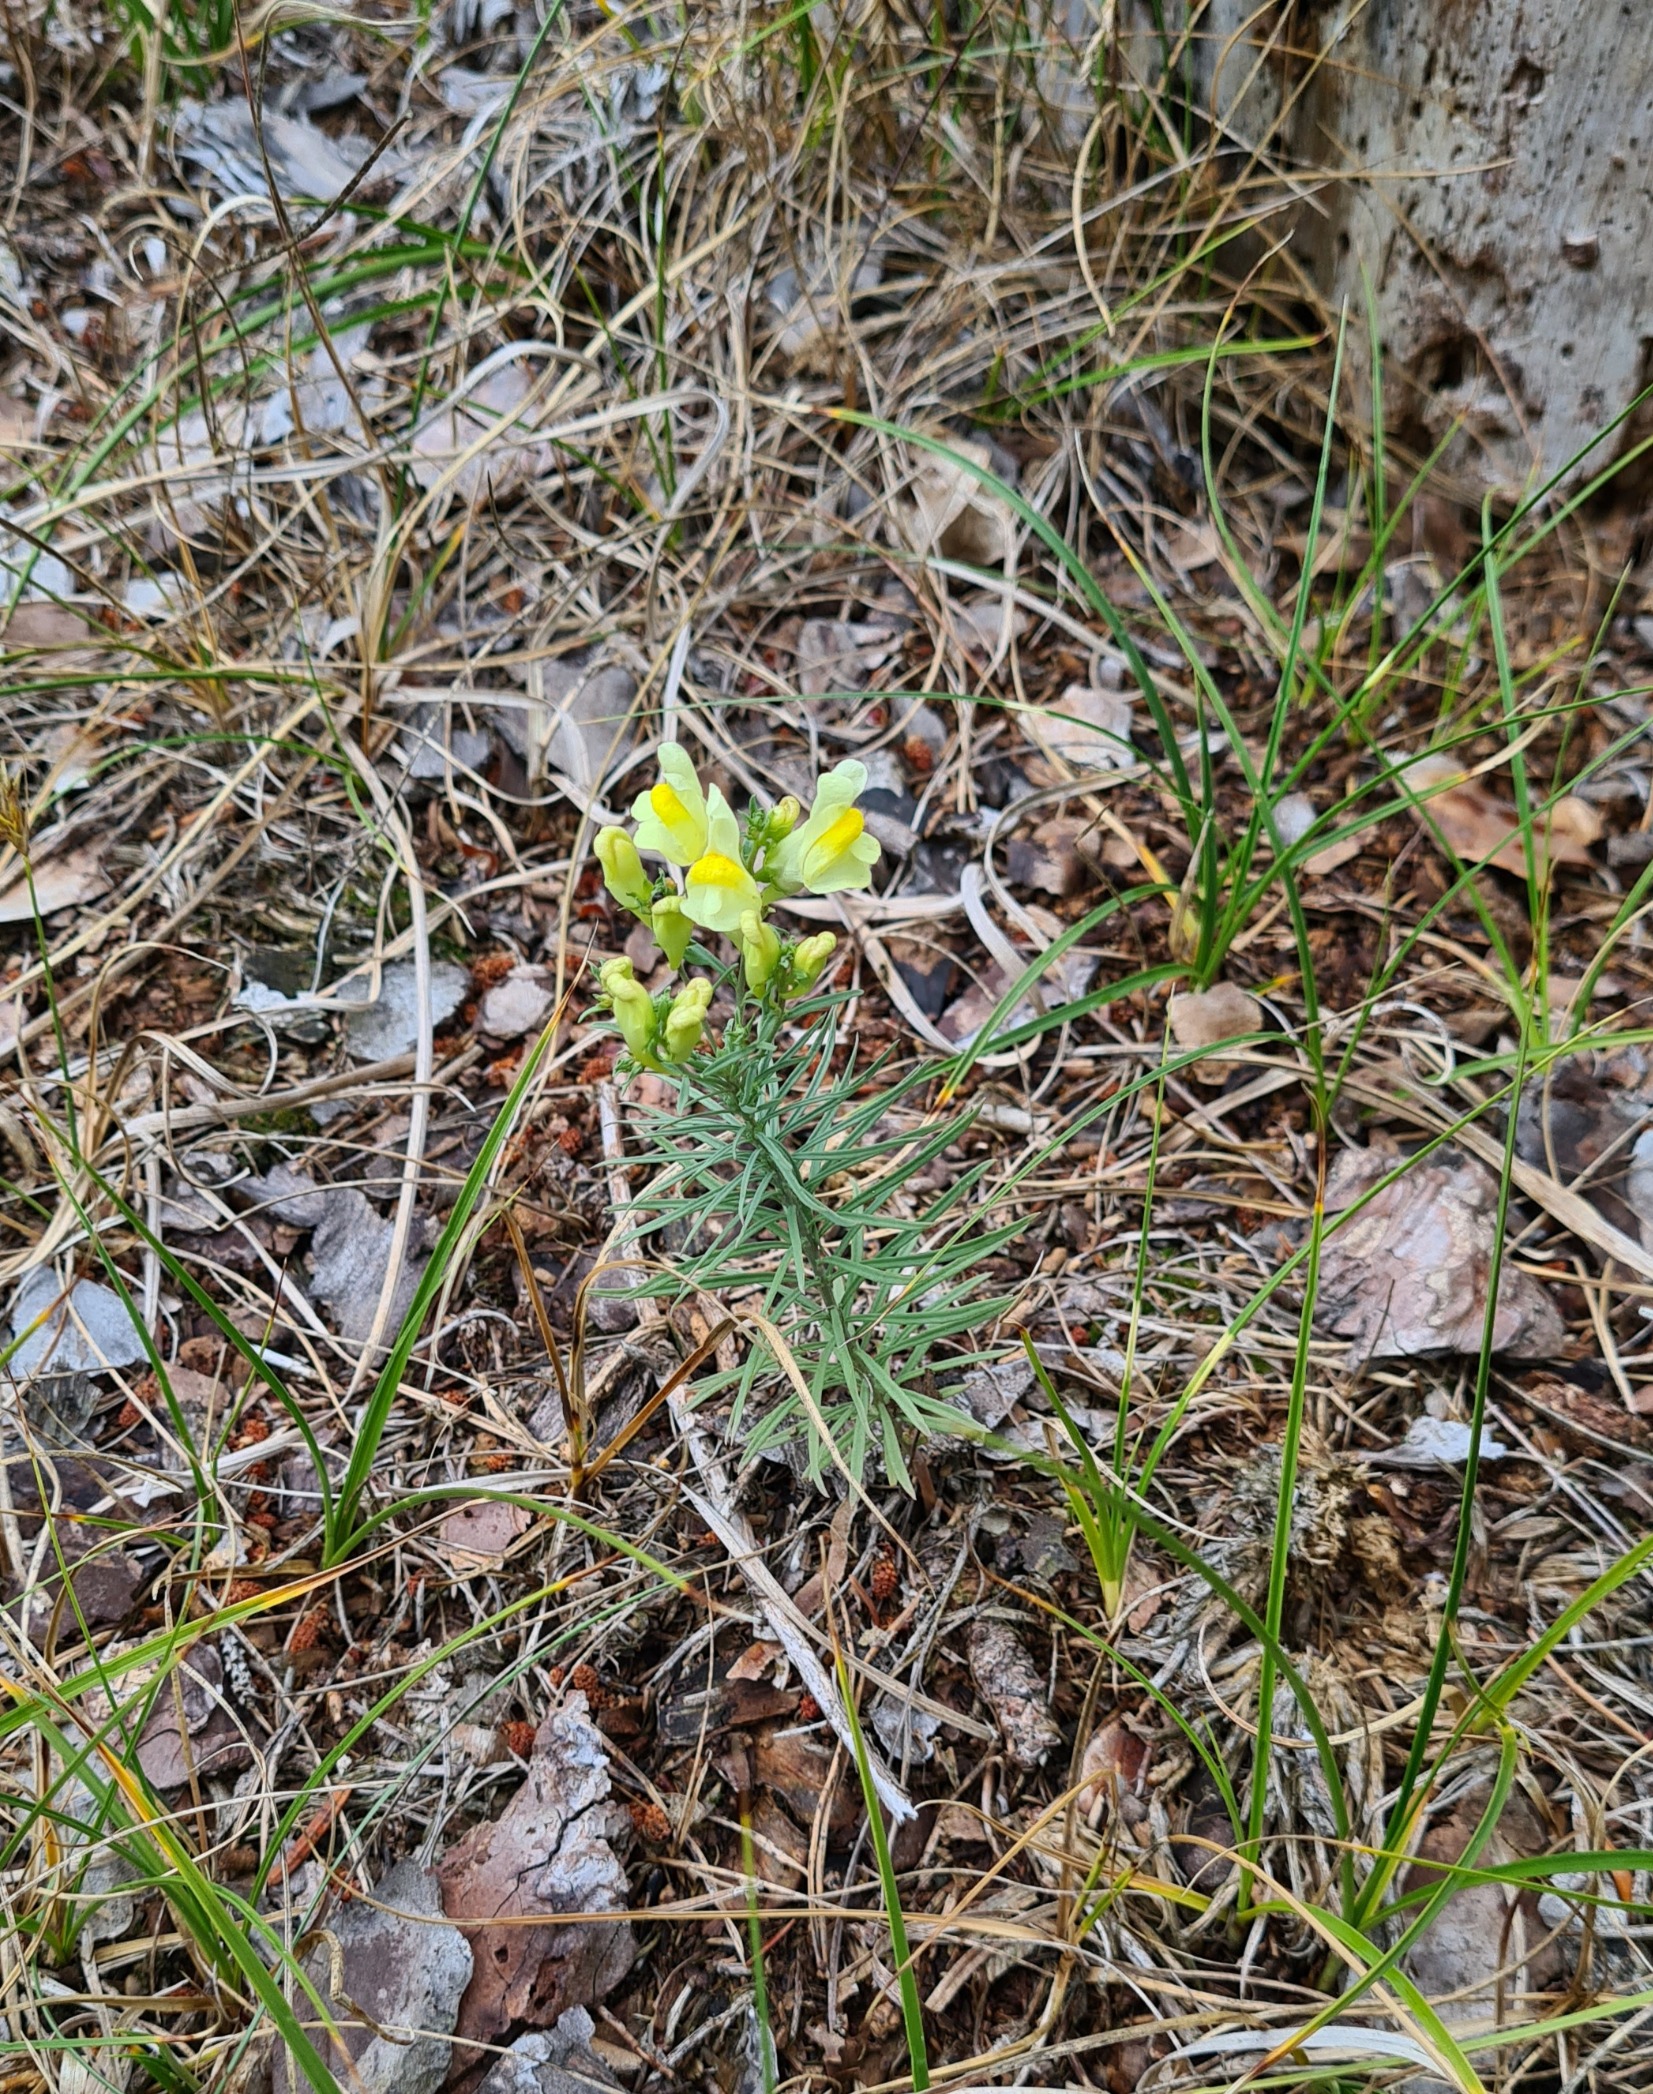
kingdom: Plantae
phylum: Tracheophyta
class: Magnoliopsida
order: Lamiales
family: Plantaginaceae
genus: Linaria
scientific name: Linaria vulgaris
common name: Almindelig torskemund
